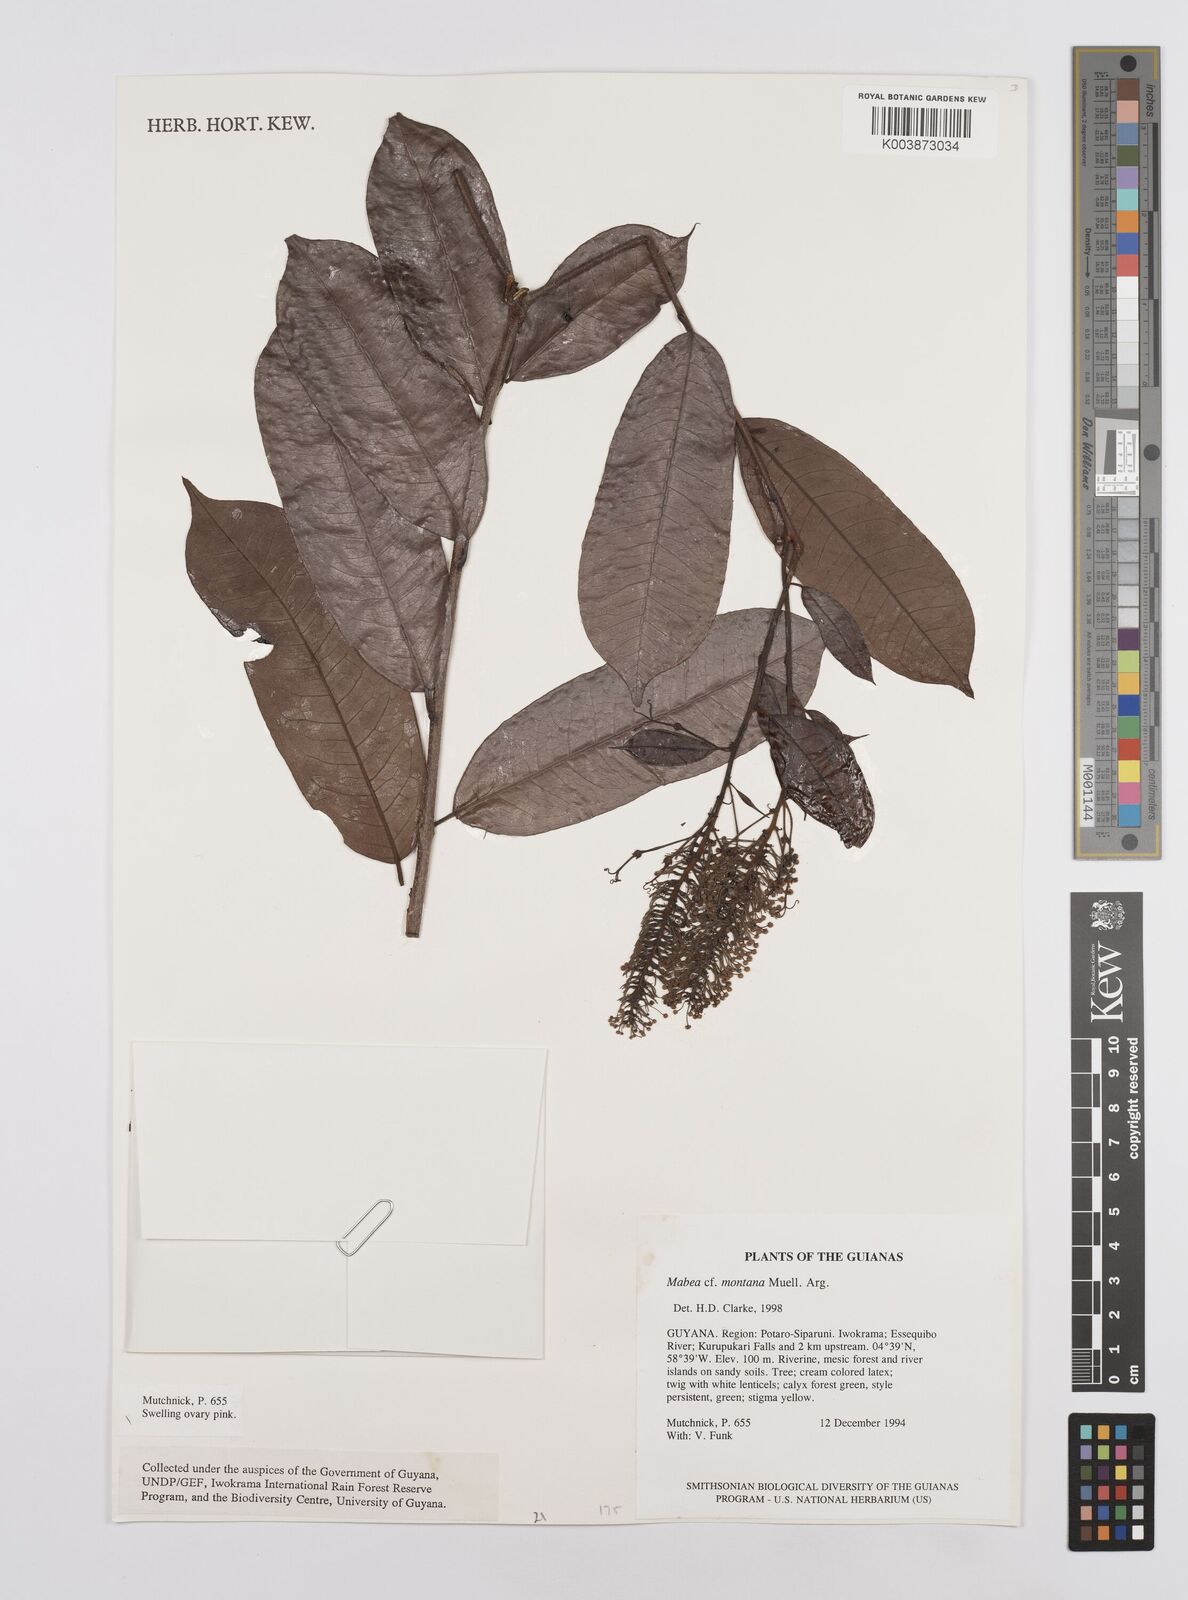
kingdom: Plantae
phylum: Tracheophyta
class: Magnoliopsida
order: Malpighiales
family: Euphorbiaceae
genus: Mabea
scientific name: Mabea montana
